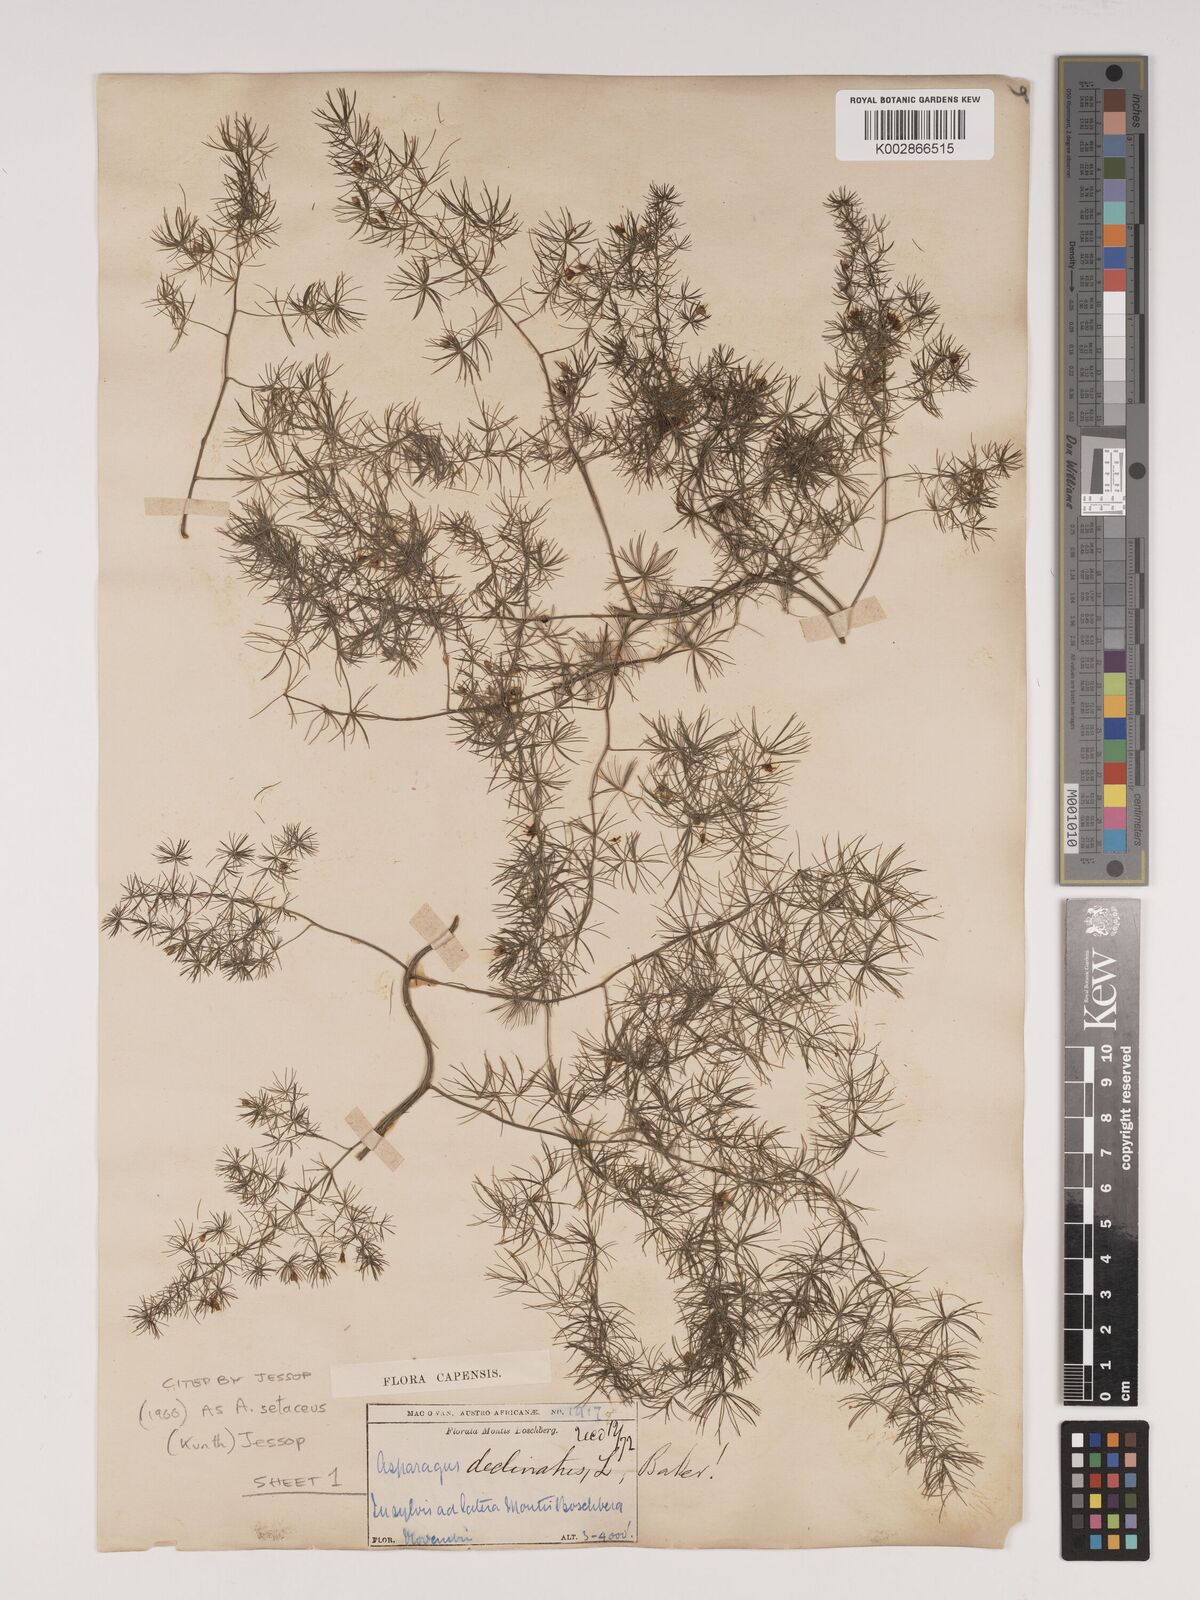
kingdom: Plantae
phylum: Tracheophyta
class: Liliopsida
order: Asparagales
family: Asparagaceae
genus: Asparagus
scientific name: Asparagus setaceus
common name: Common asparagus fern
